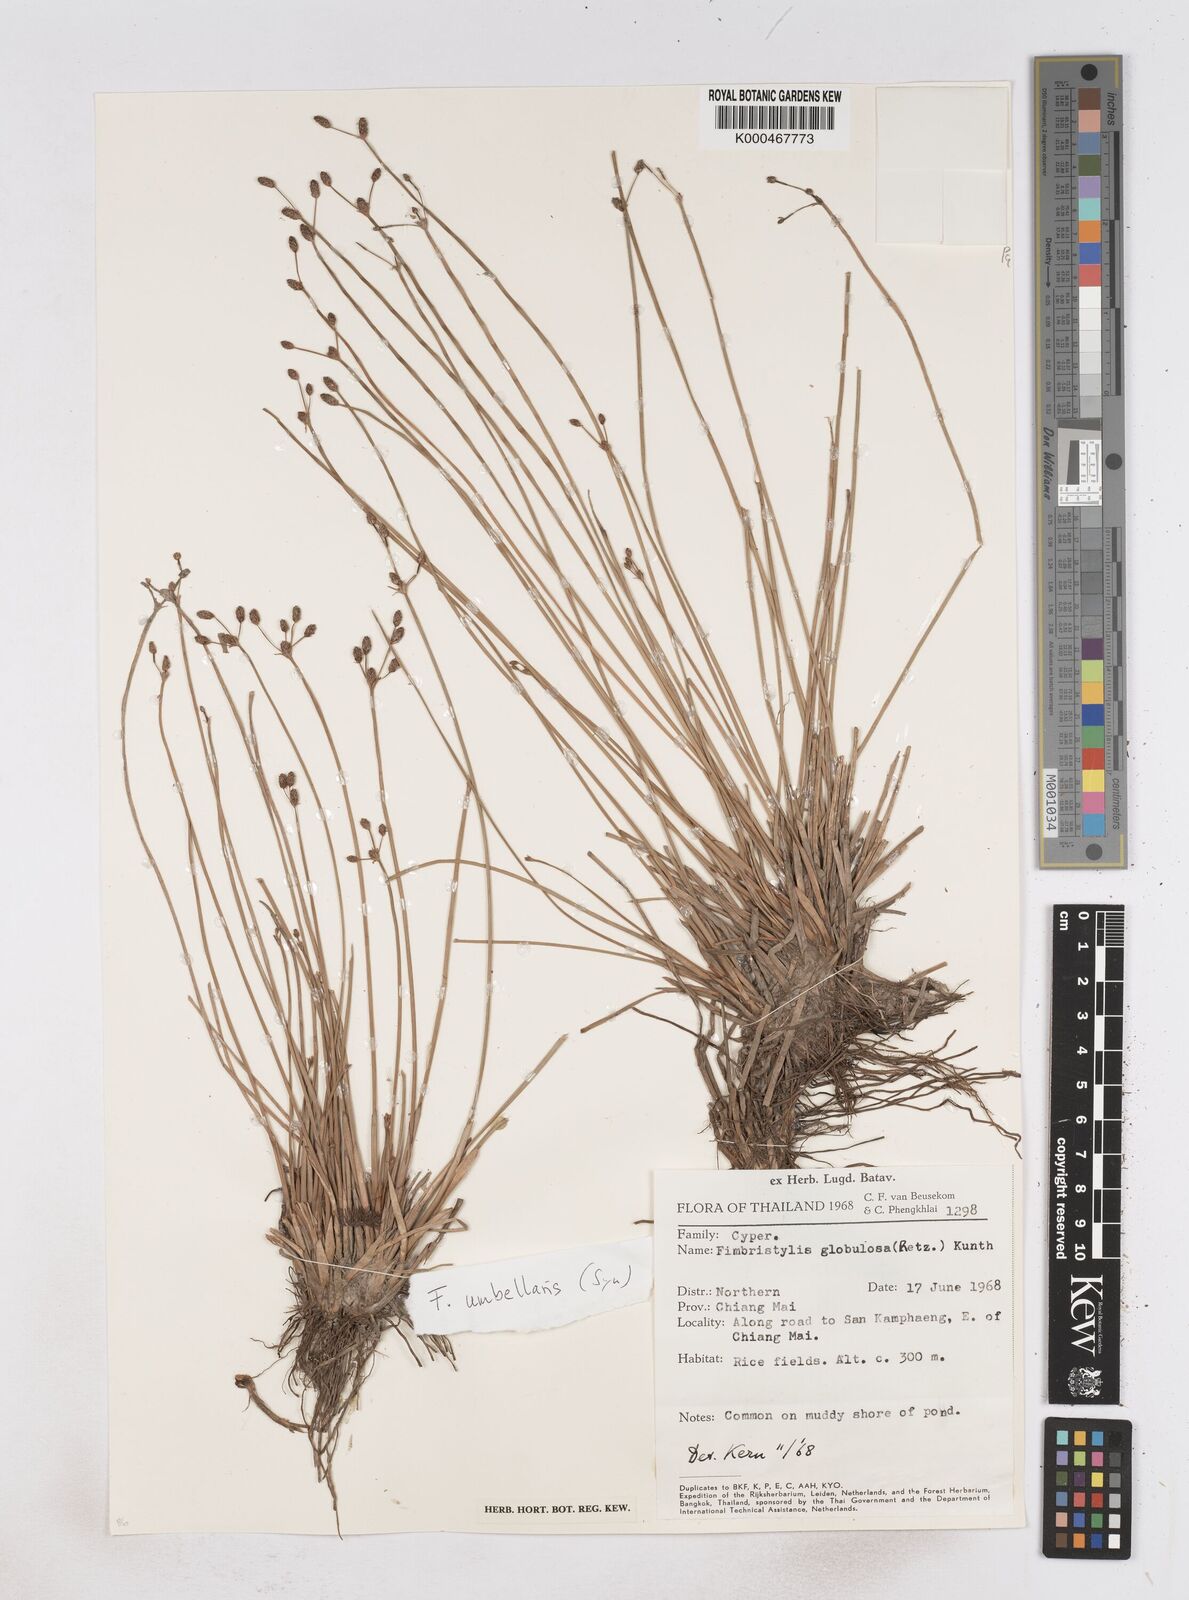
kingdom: Plantae
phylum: Tracheophyta
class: Liliopsida
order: Poales
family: Cyperaceae
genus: Fimbristylis
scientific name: Fimbristylis umbellaris
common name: Globular fimbristylis
